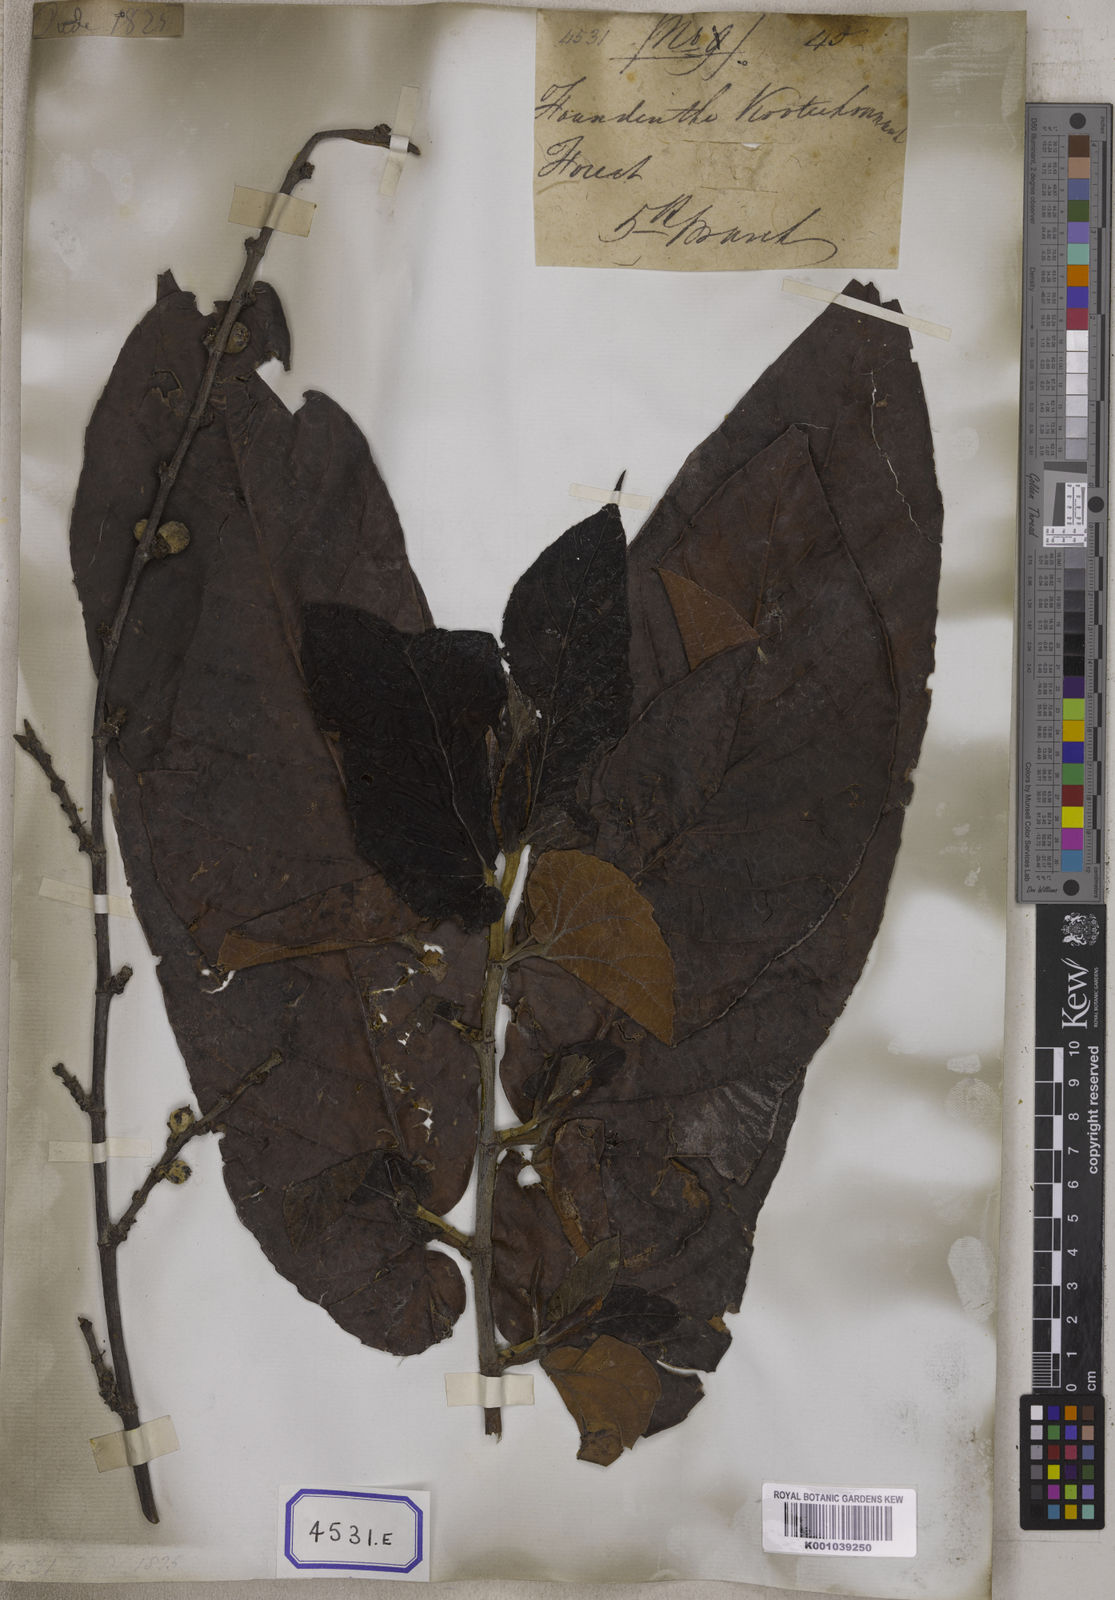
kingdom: Plantae
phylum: Tracheophyta
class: Magnoliopsida
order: Rosales
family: Moraceae
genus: Ficus
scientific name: Ficus semicordata
